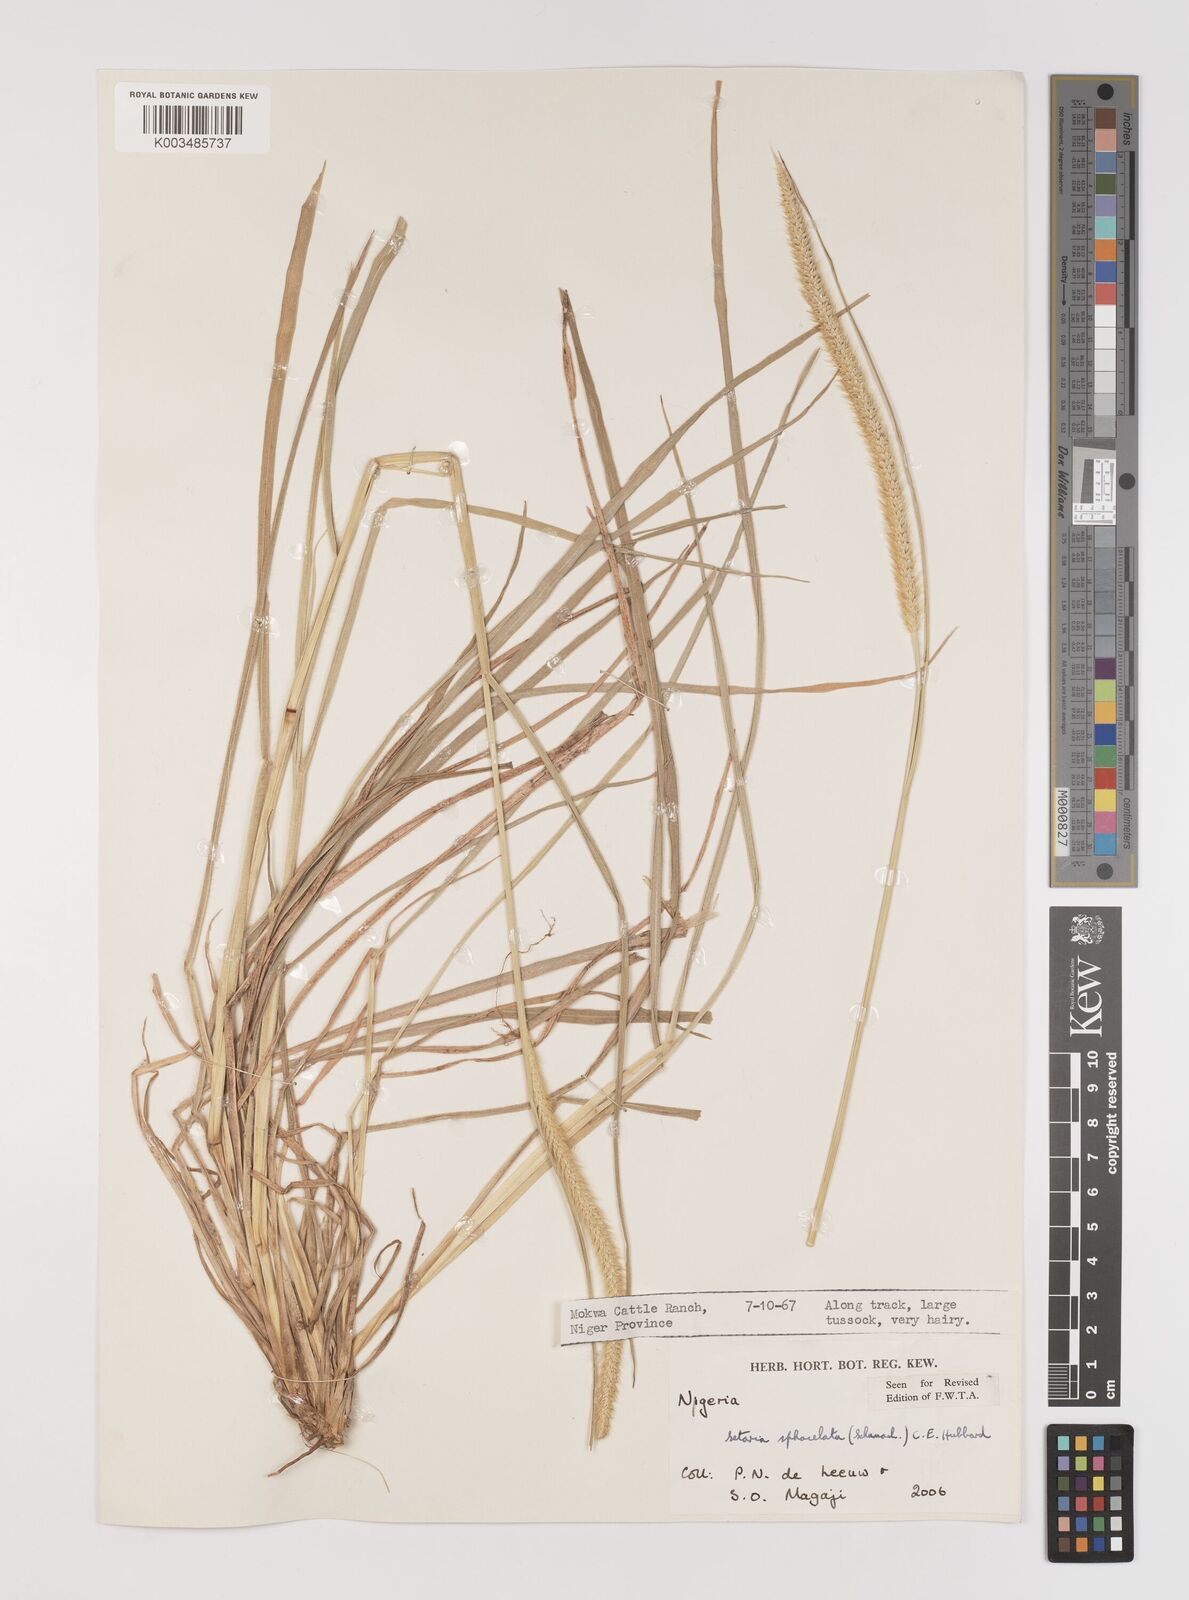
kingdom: Plantae
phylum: Tracheophyta
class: Liliopsida
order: Poales
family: Poaceae
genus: Setaria
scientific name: Setaria sphacelata
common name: African bristlegrass
